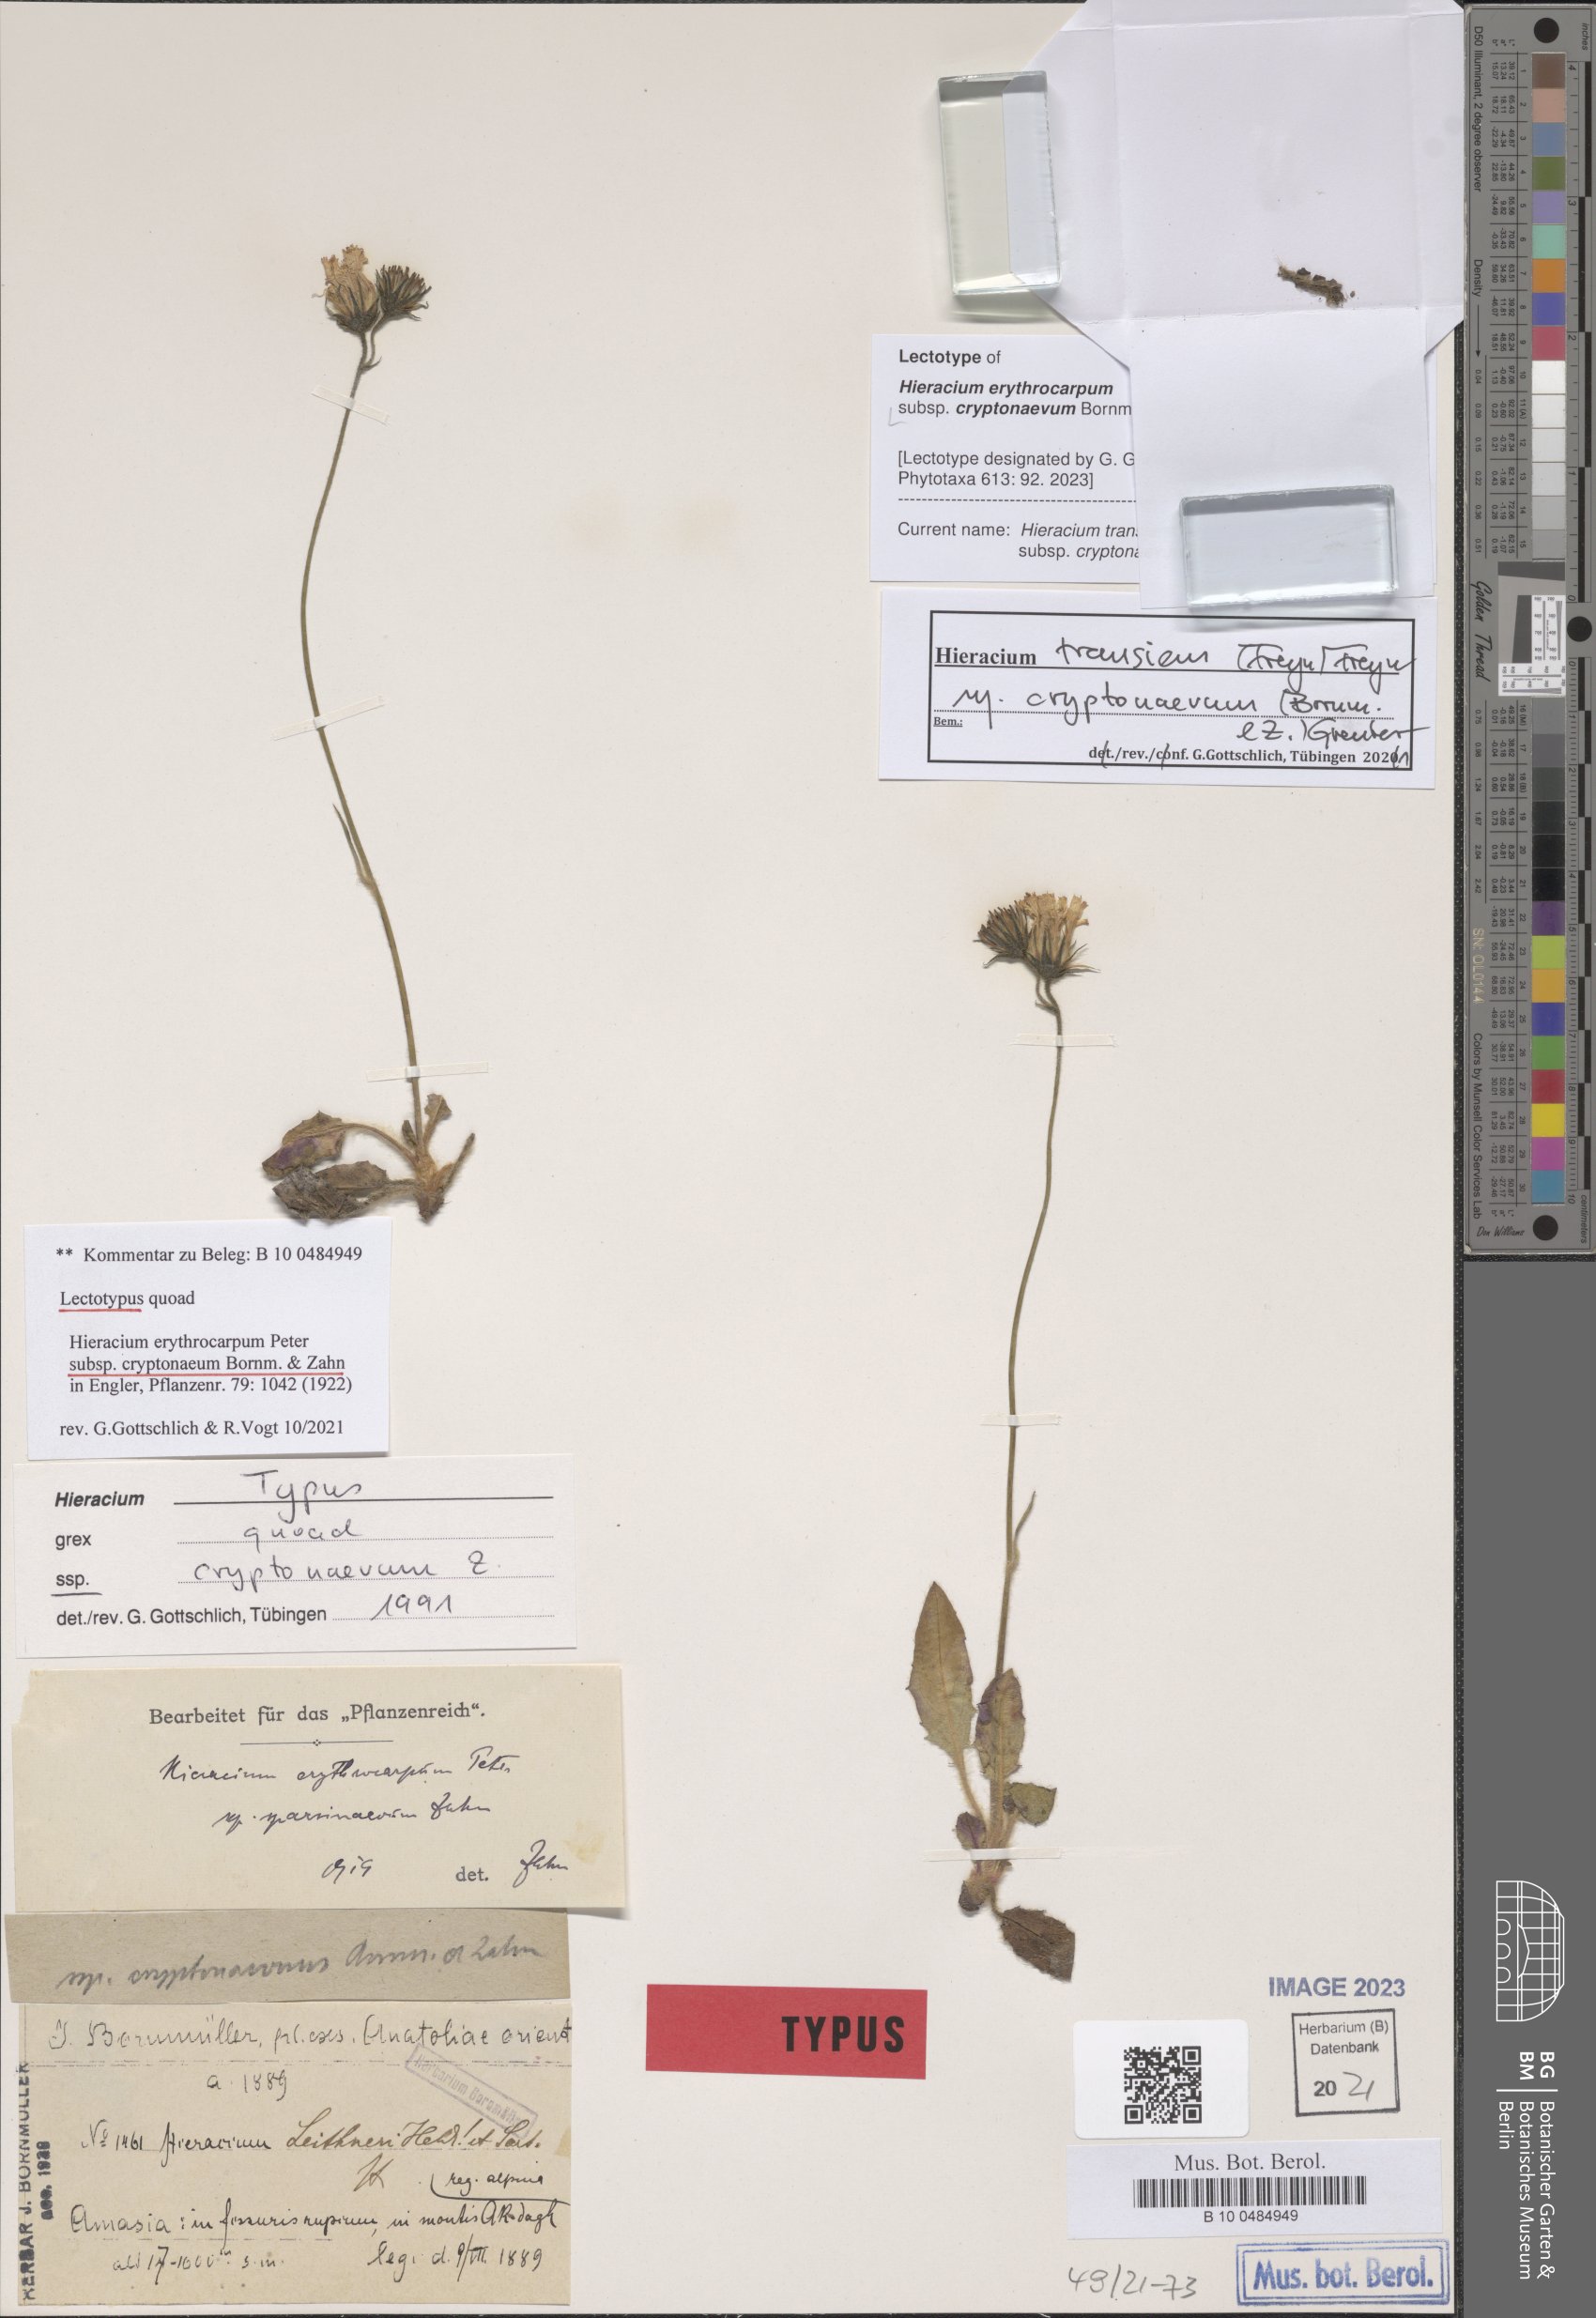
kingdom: Plantae
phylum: Tracheophyta
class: Magnoliopsida
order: Asterales
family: Asteraceae
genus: Hieracium
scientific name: Hieracium transiens
